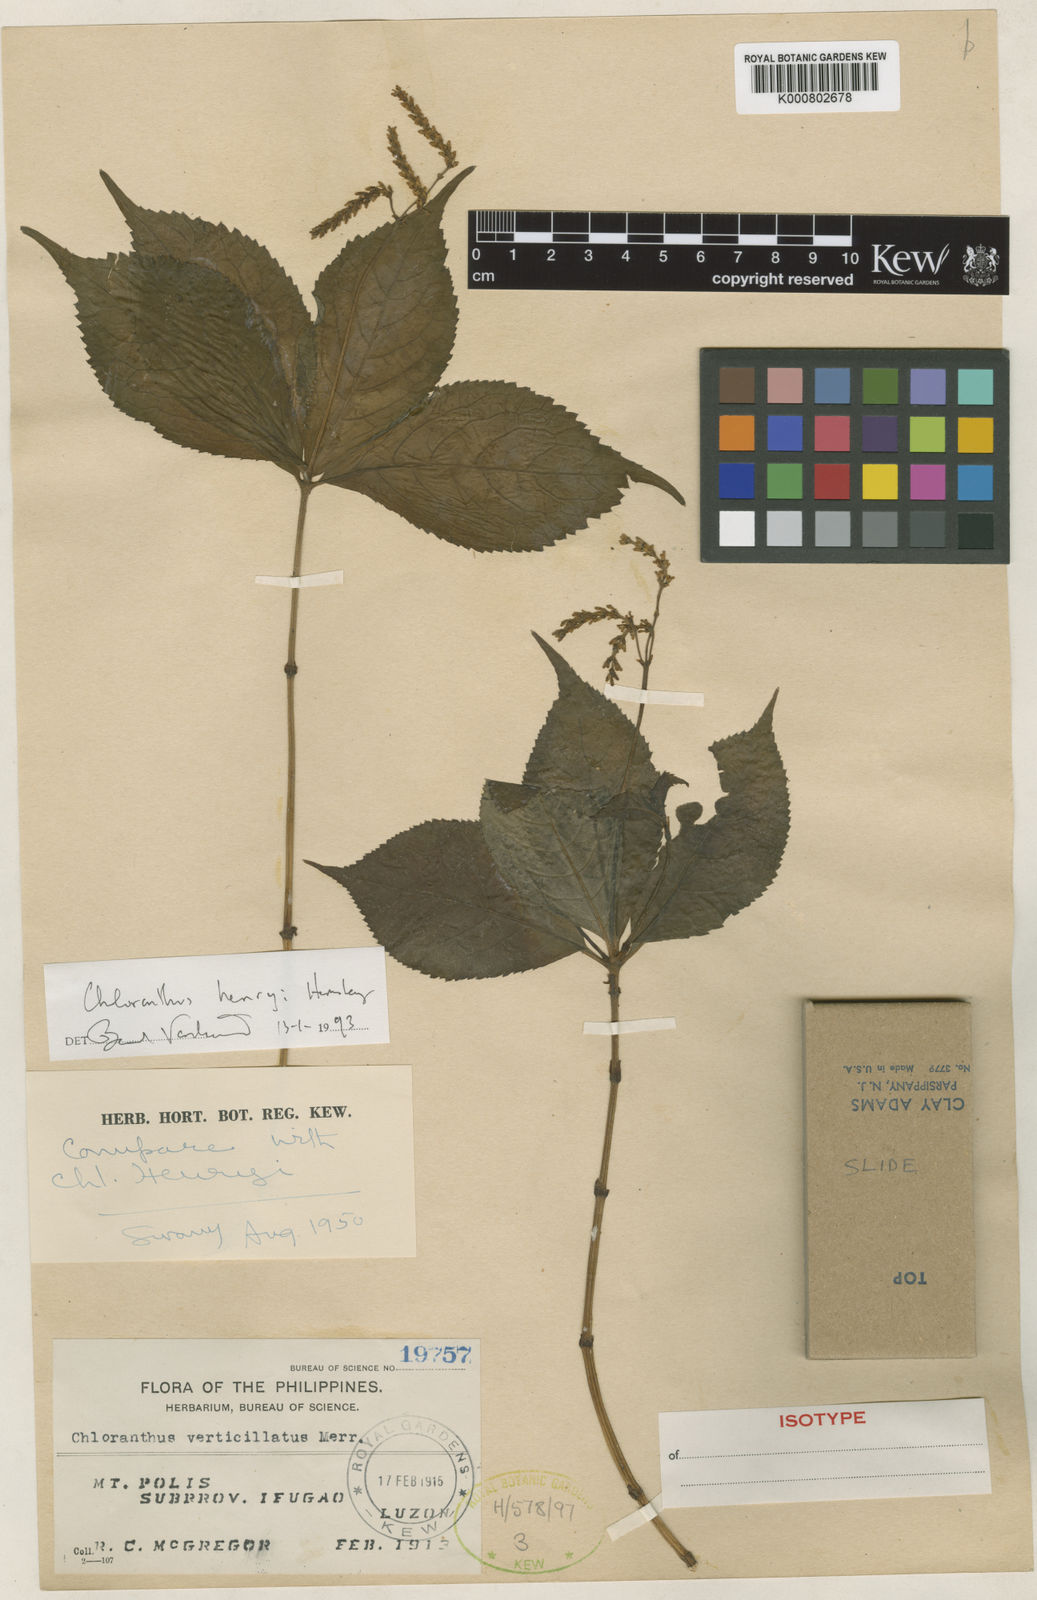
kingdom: Plantae
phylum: Tracheophyta
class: Magnoliopsida
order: Chloranthales
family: Chloranthaceae
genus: Chloranthus
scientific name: Chloranthus henryi
